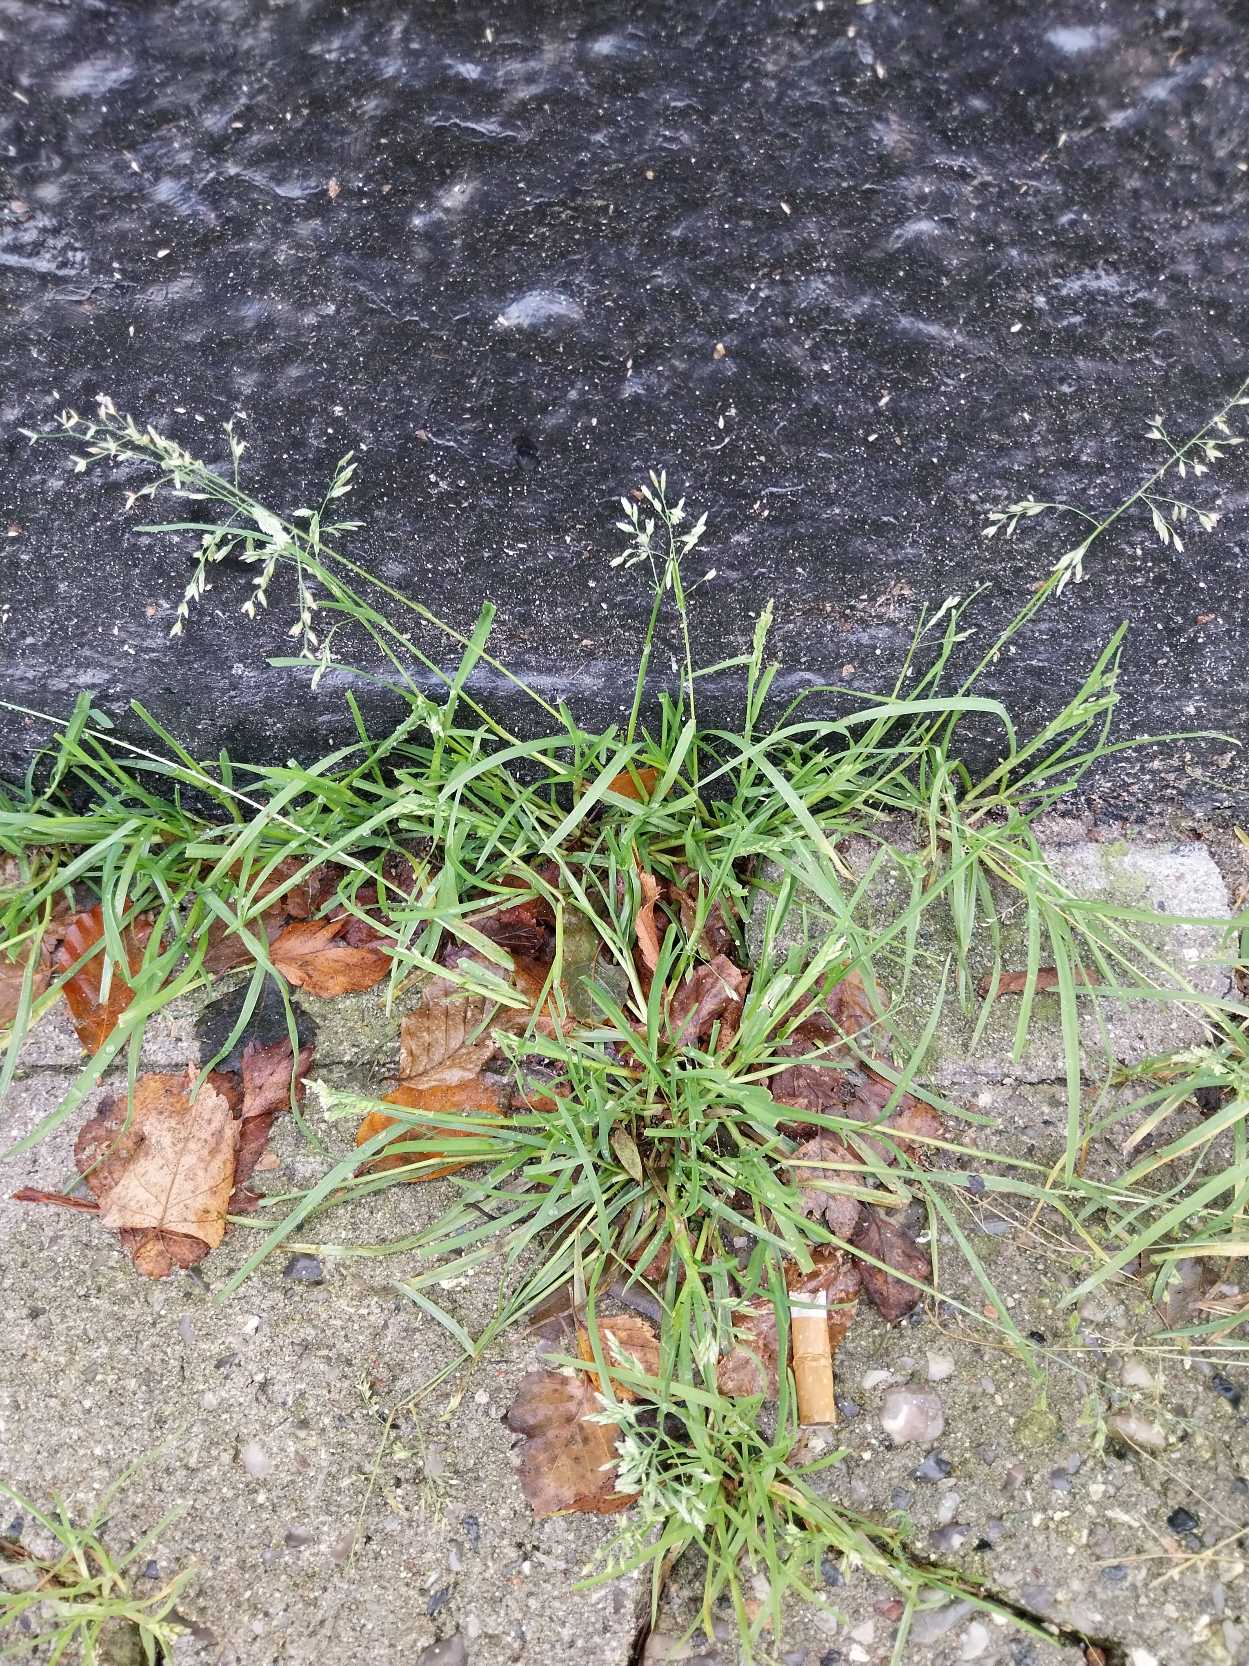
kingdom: Plantae
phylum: Tracheophyta
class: Liliopsida
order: Poales
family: Poaceae
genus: Poa
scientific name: Poa annua
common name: Enårig rapgræs
